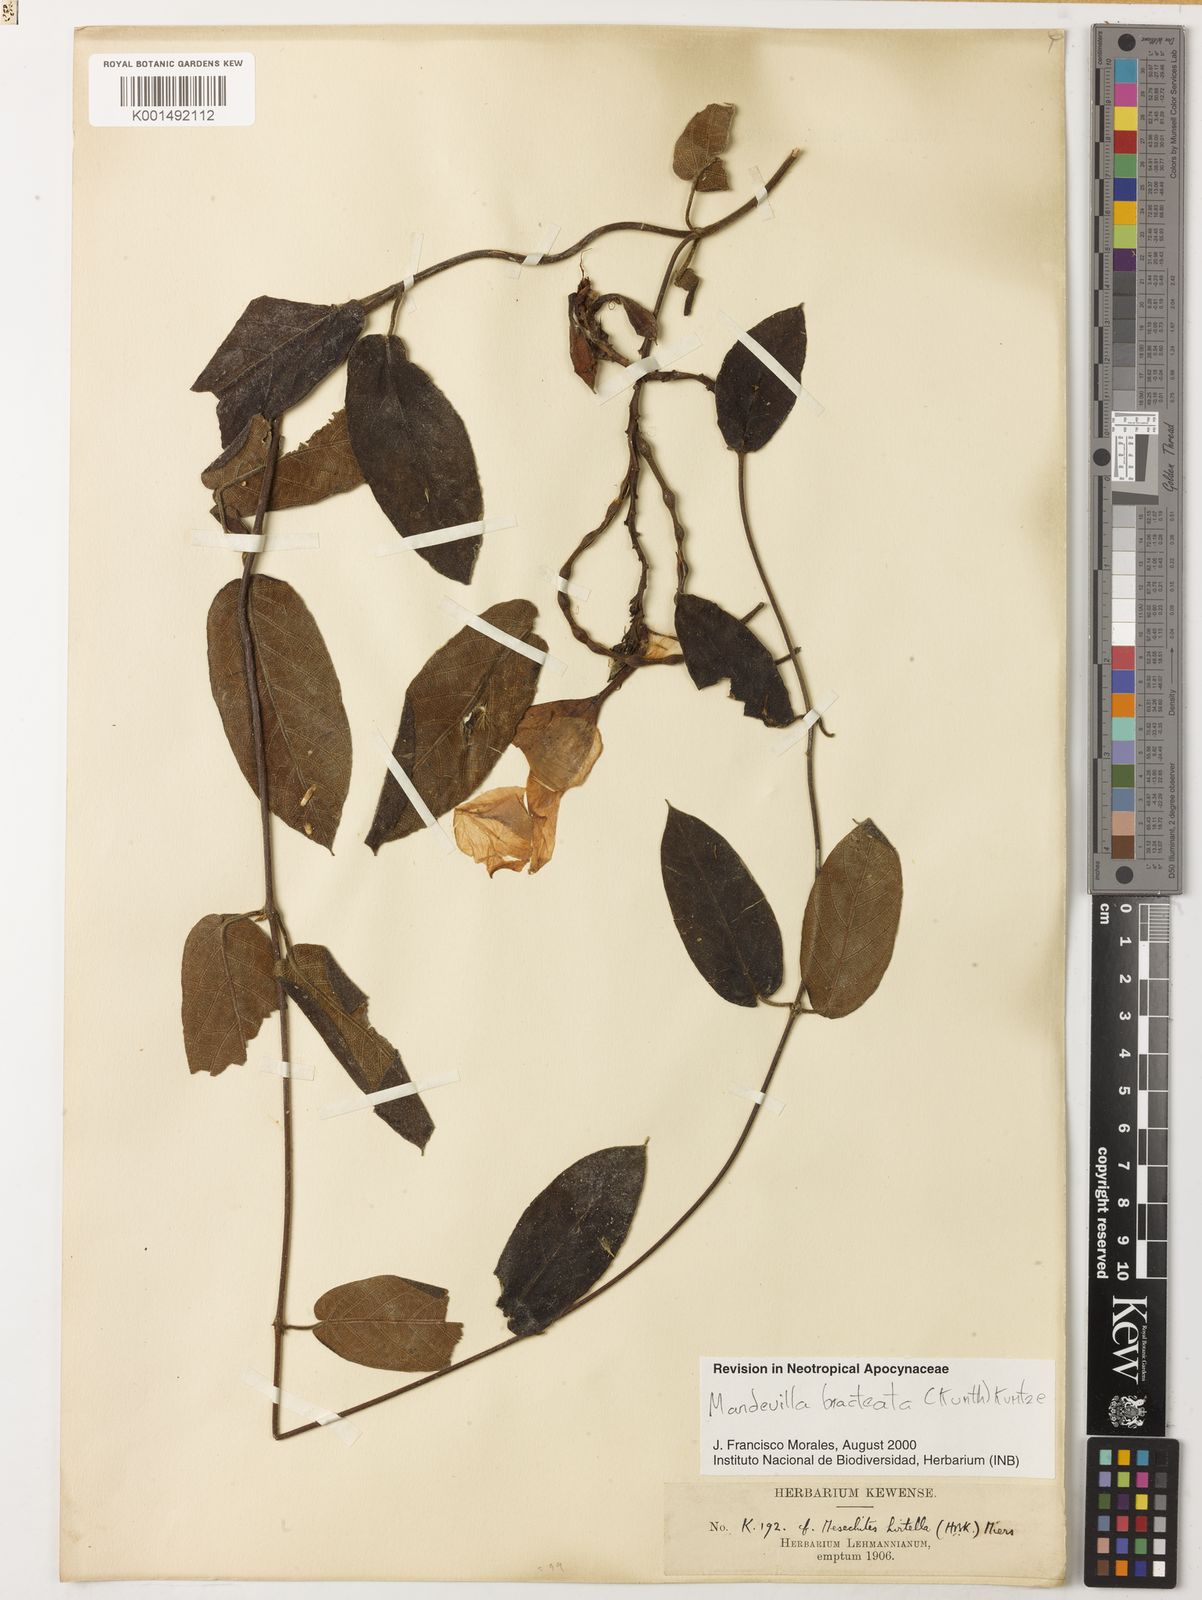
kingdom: Plantae
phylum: Tracheophyta
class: Magnoliopsida
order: Gentianales
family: Apocynaceae
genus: Mandevilla
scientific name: Mandevilla bracteata
